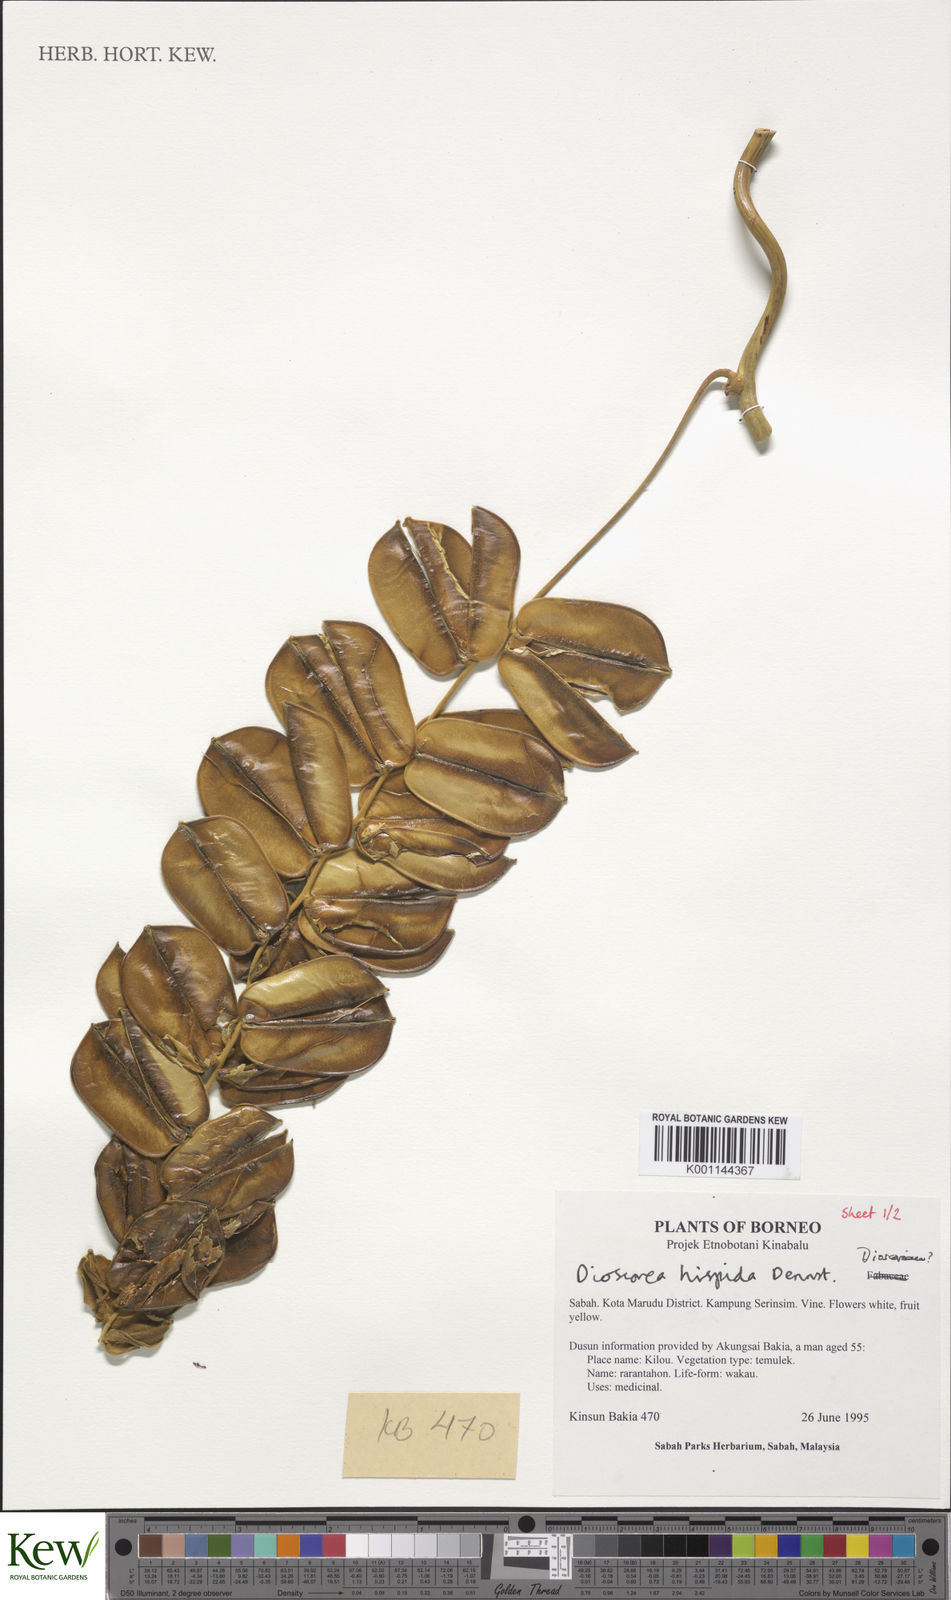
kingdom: Plantae
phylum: Tracheophyta
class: Liliopsida
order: Dioscoreales
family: Dioscoreaceae
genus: Dioscorea
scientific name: Dioscorea hispida
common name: Asiatic bitter yam
